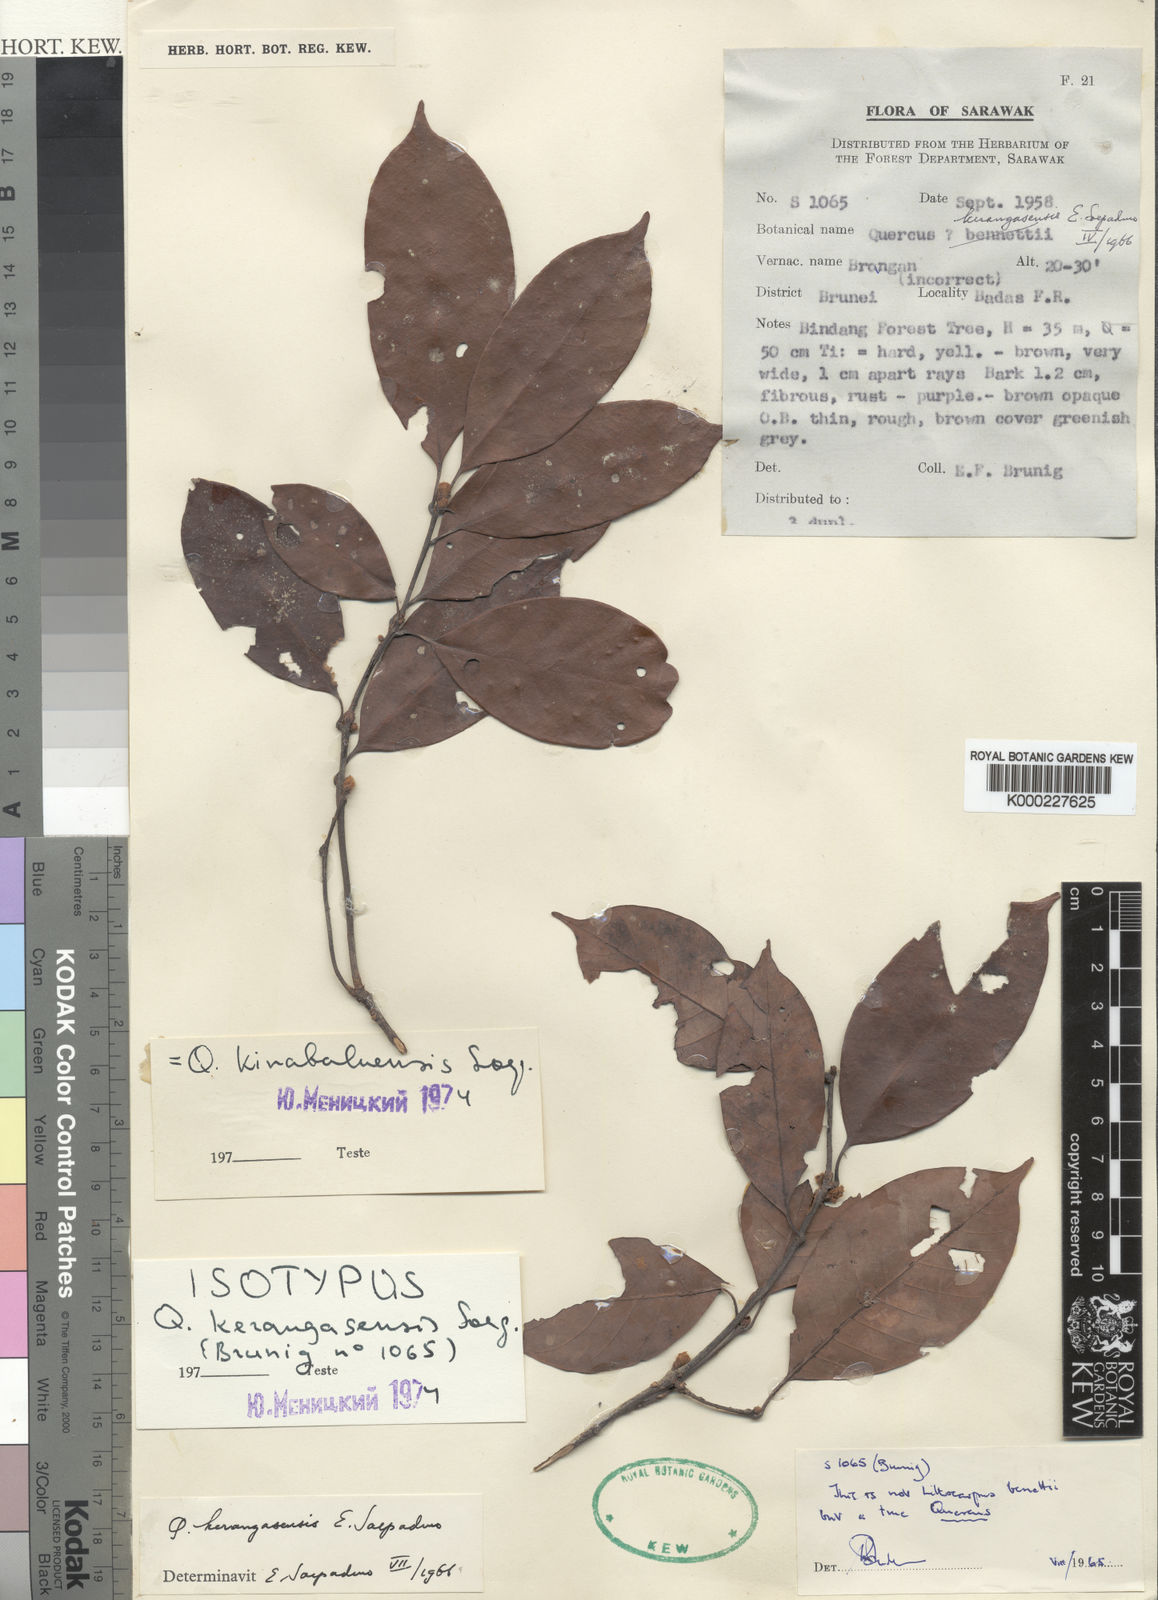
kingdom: Plantae
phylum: Tracheophyta
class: Magnoliopsida
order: Fagales
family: Fagaceae
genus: Quercus
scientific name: Quercus kerangasensis
